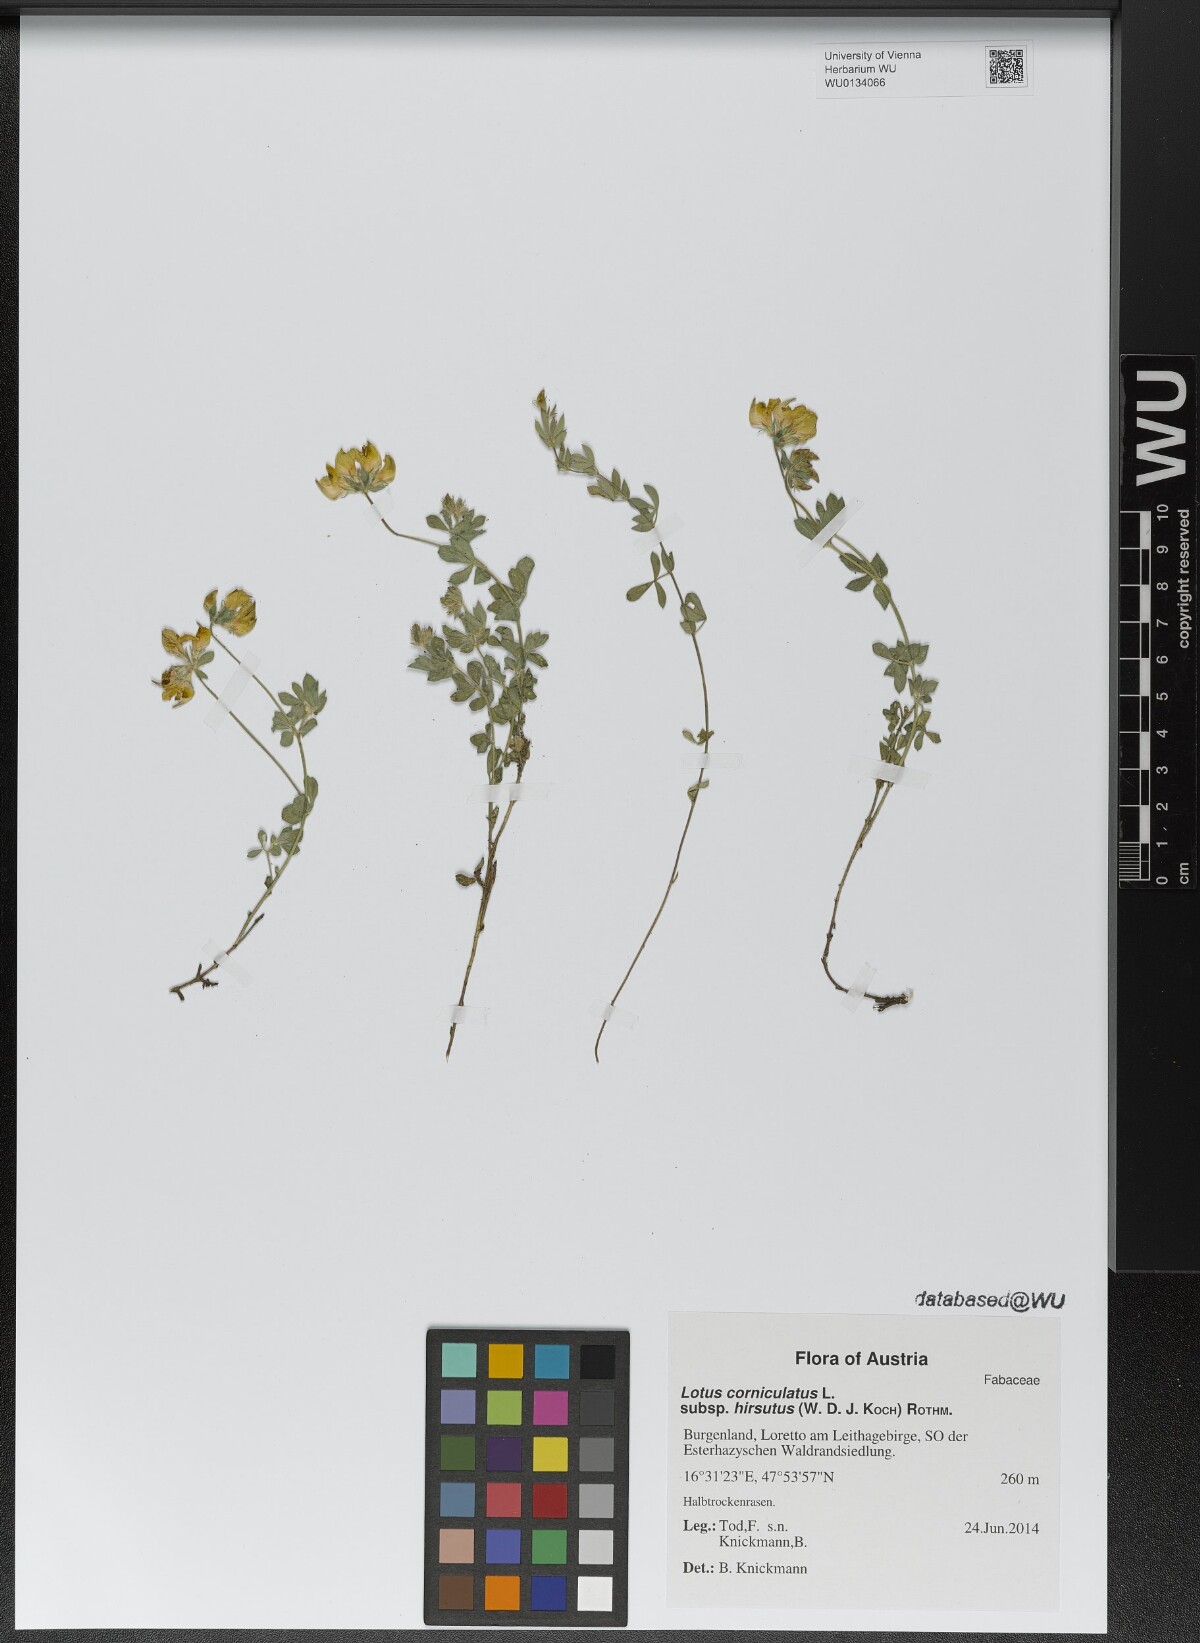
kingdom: Plantae
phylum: Tracheophyta
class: Magnoliopsida
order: Fabales
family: Fabaceae
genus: Lotus
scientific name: Lotus corniculatus
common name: Common bird's-foot-trefoil
